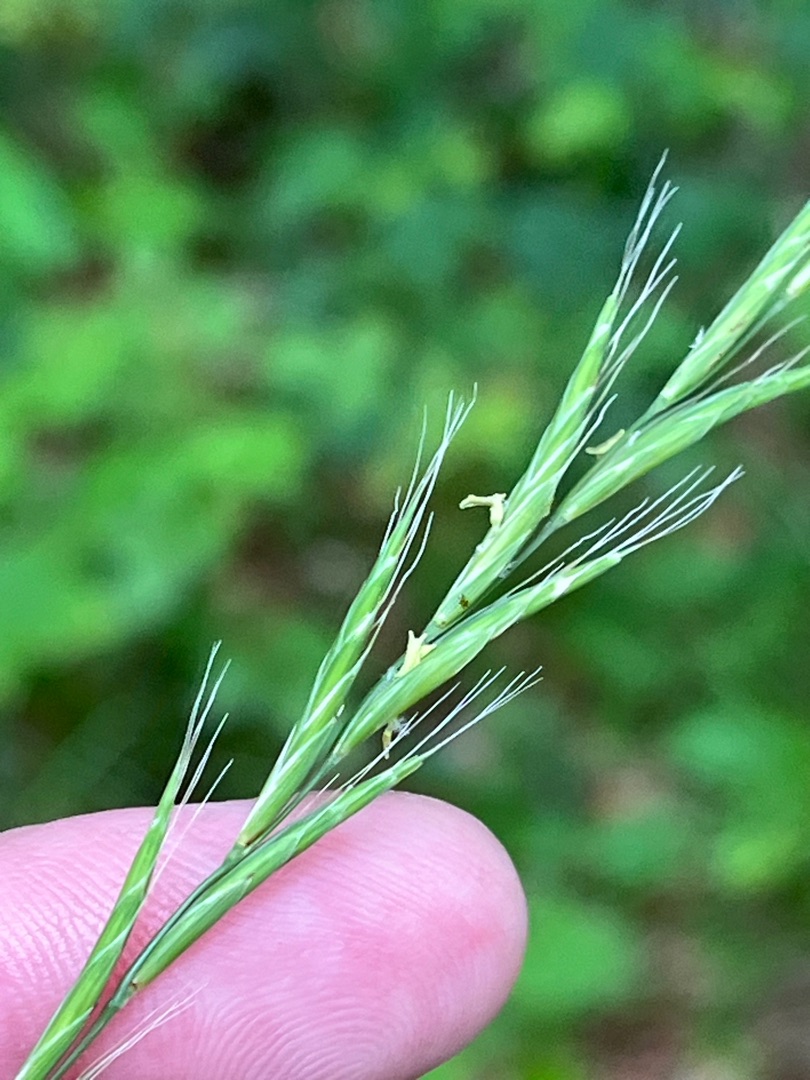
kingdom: Plantae
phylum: Tracheophyta
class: Liliopsida
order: Poales
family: Poaceae
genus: Brachypodium
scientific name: Brachypodium sylvaticum
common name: Skov-stilkaks
